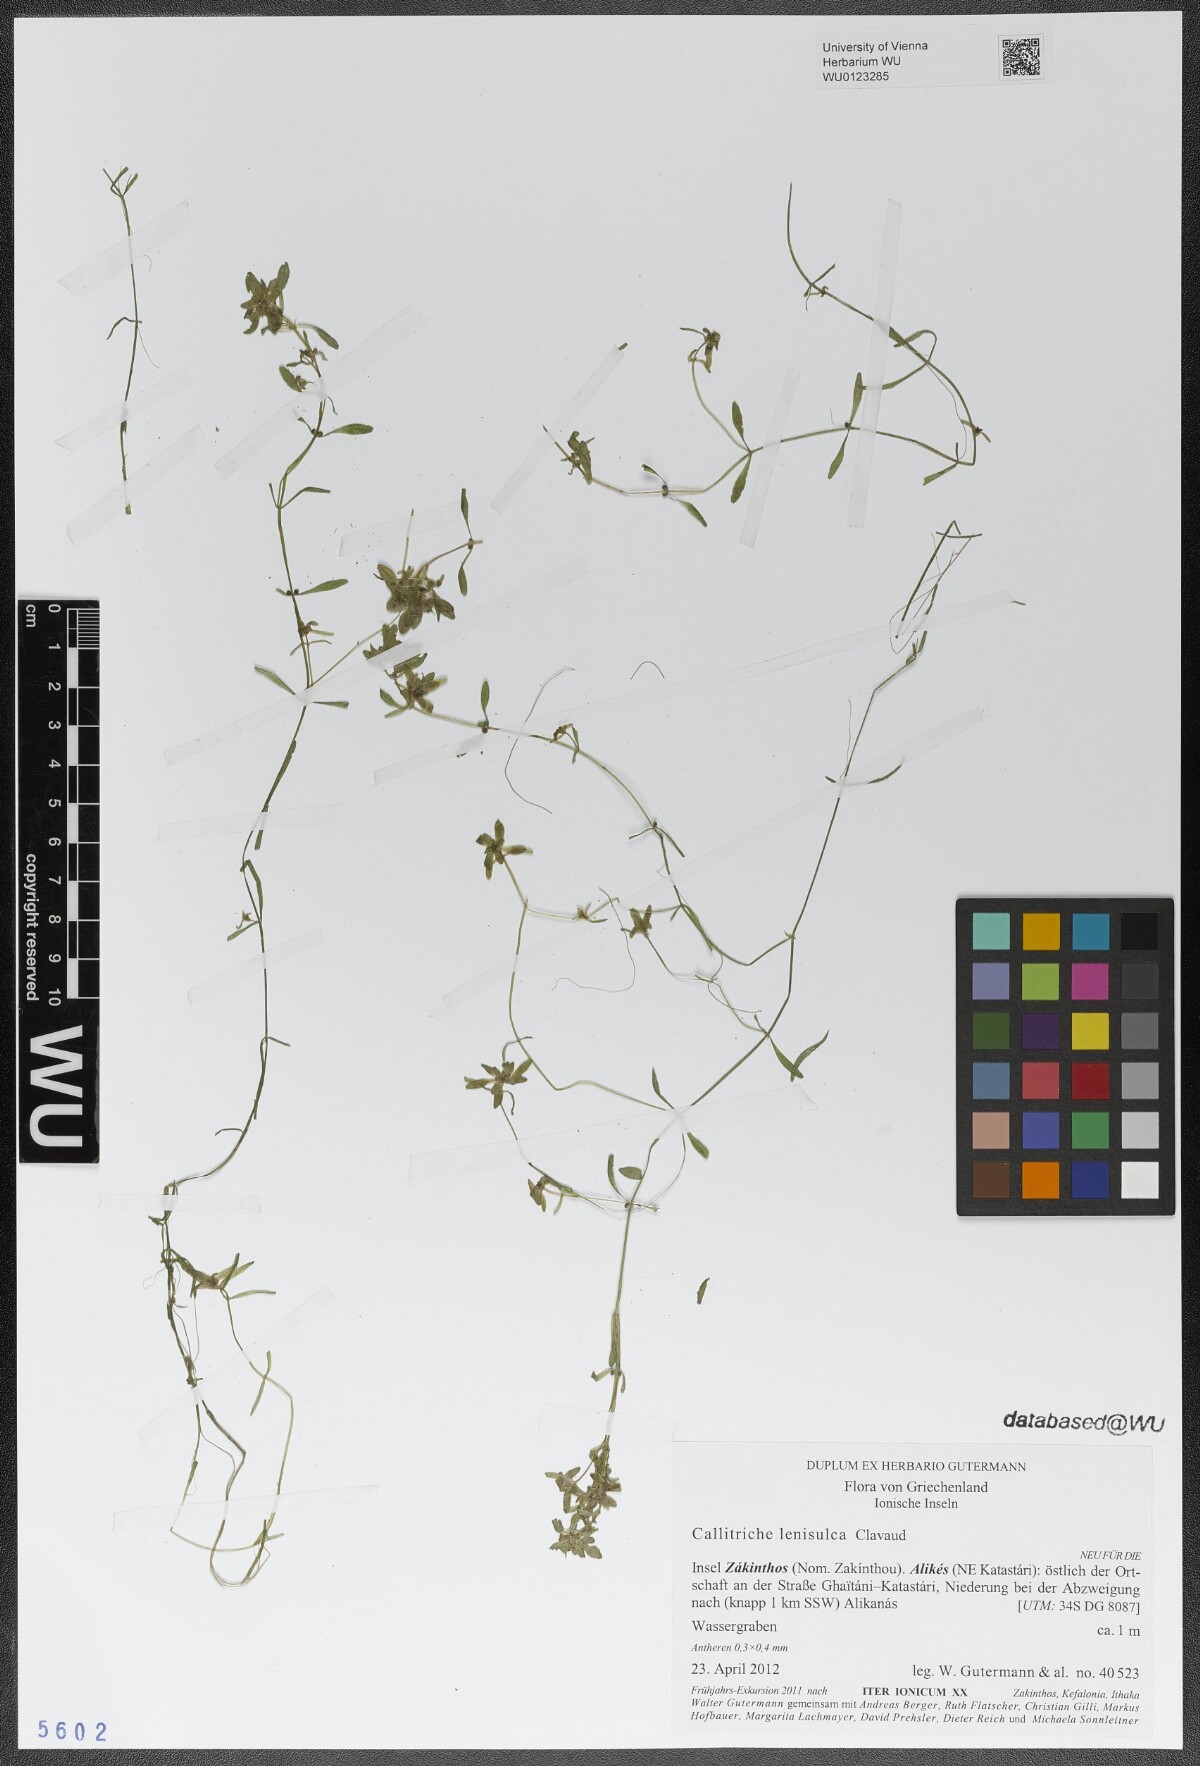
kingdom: Plantae
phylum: Tracheophyta
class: Magnoliopsida
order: Lamiales
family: Plantaginaceae
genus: Callitriche
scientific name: Callitriche lenisulca
